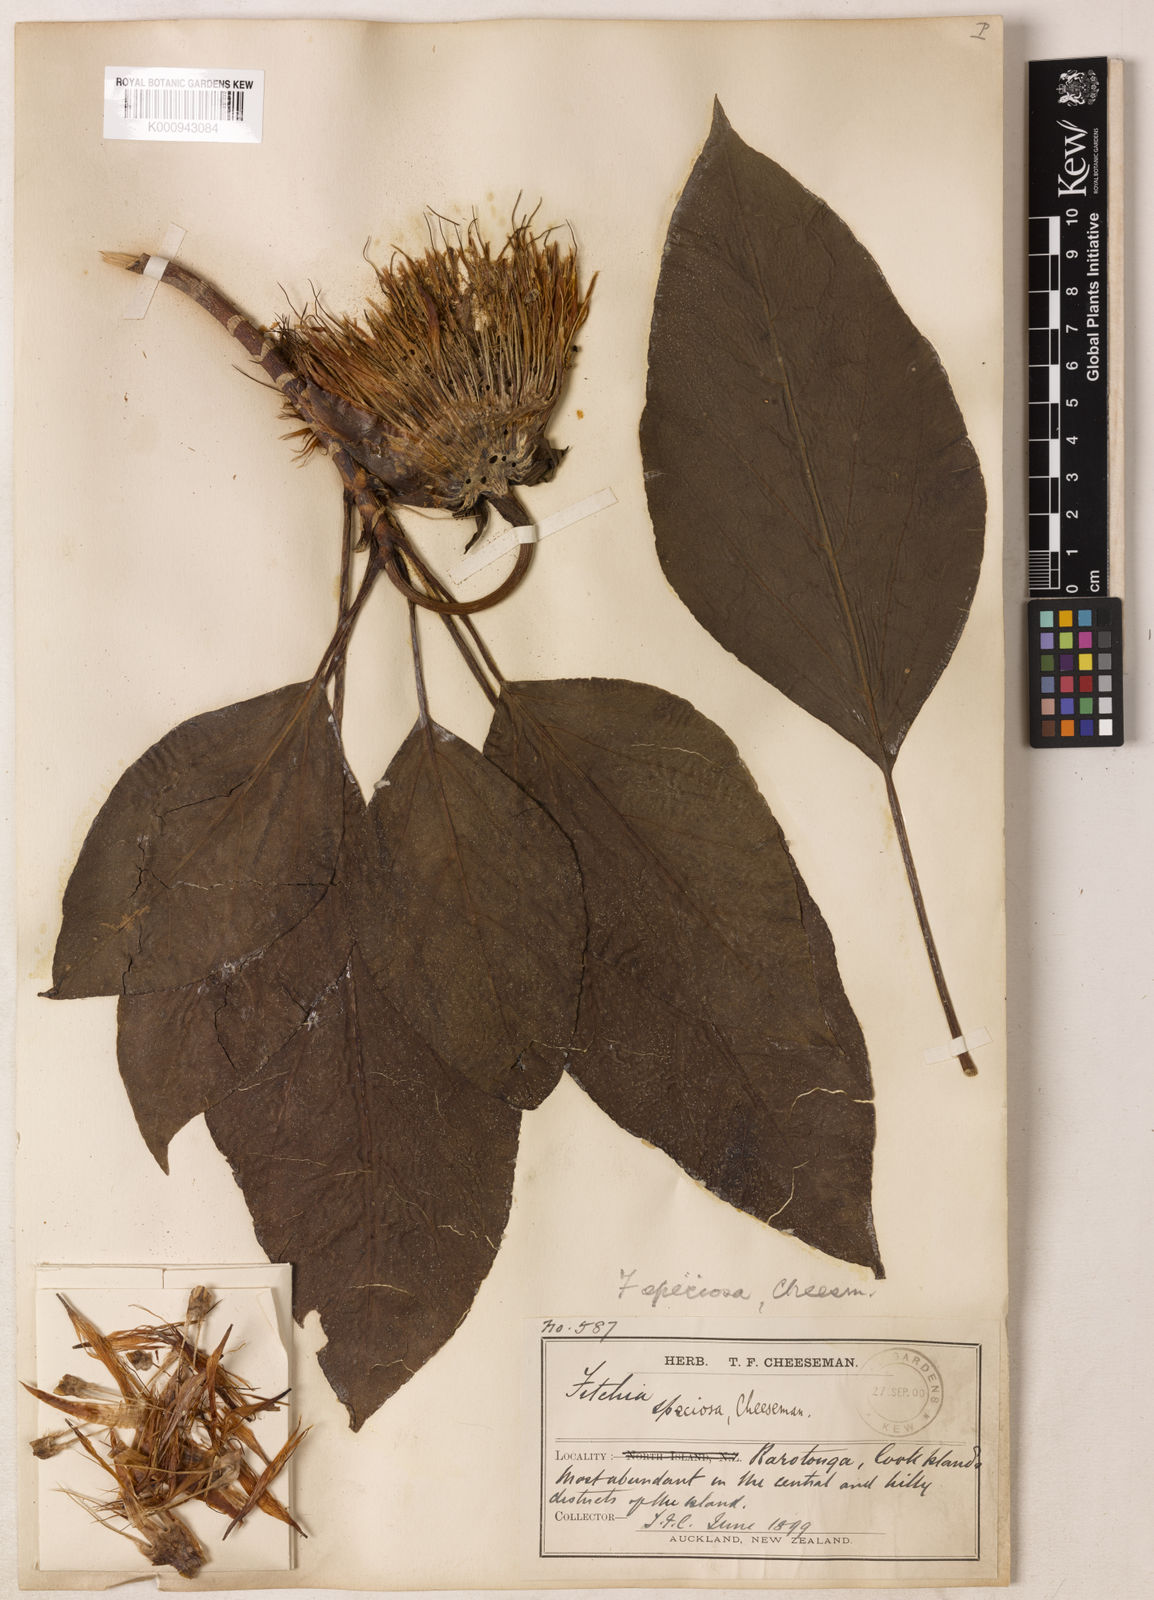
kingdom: Plantae
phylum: Tracheophyta
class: Magnoliopsida
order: Asterales
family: Asteraceae
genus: Fitchia
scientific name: Fitchia speciosa
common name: Burr daisytree
